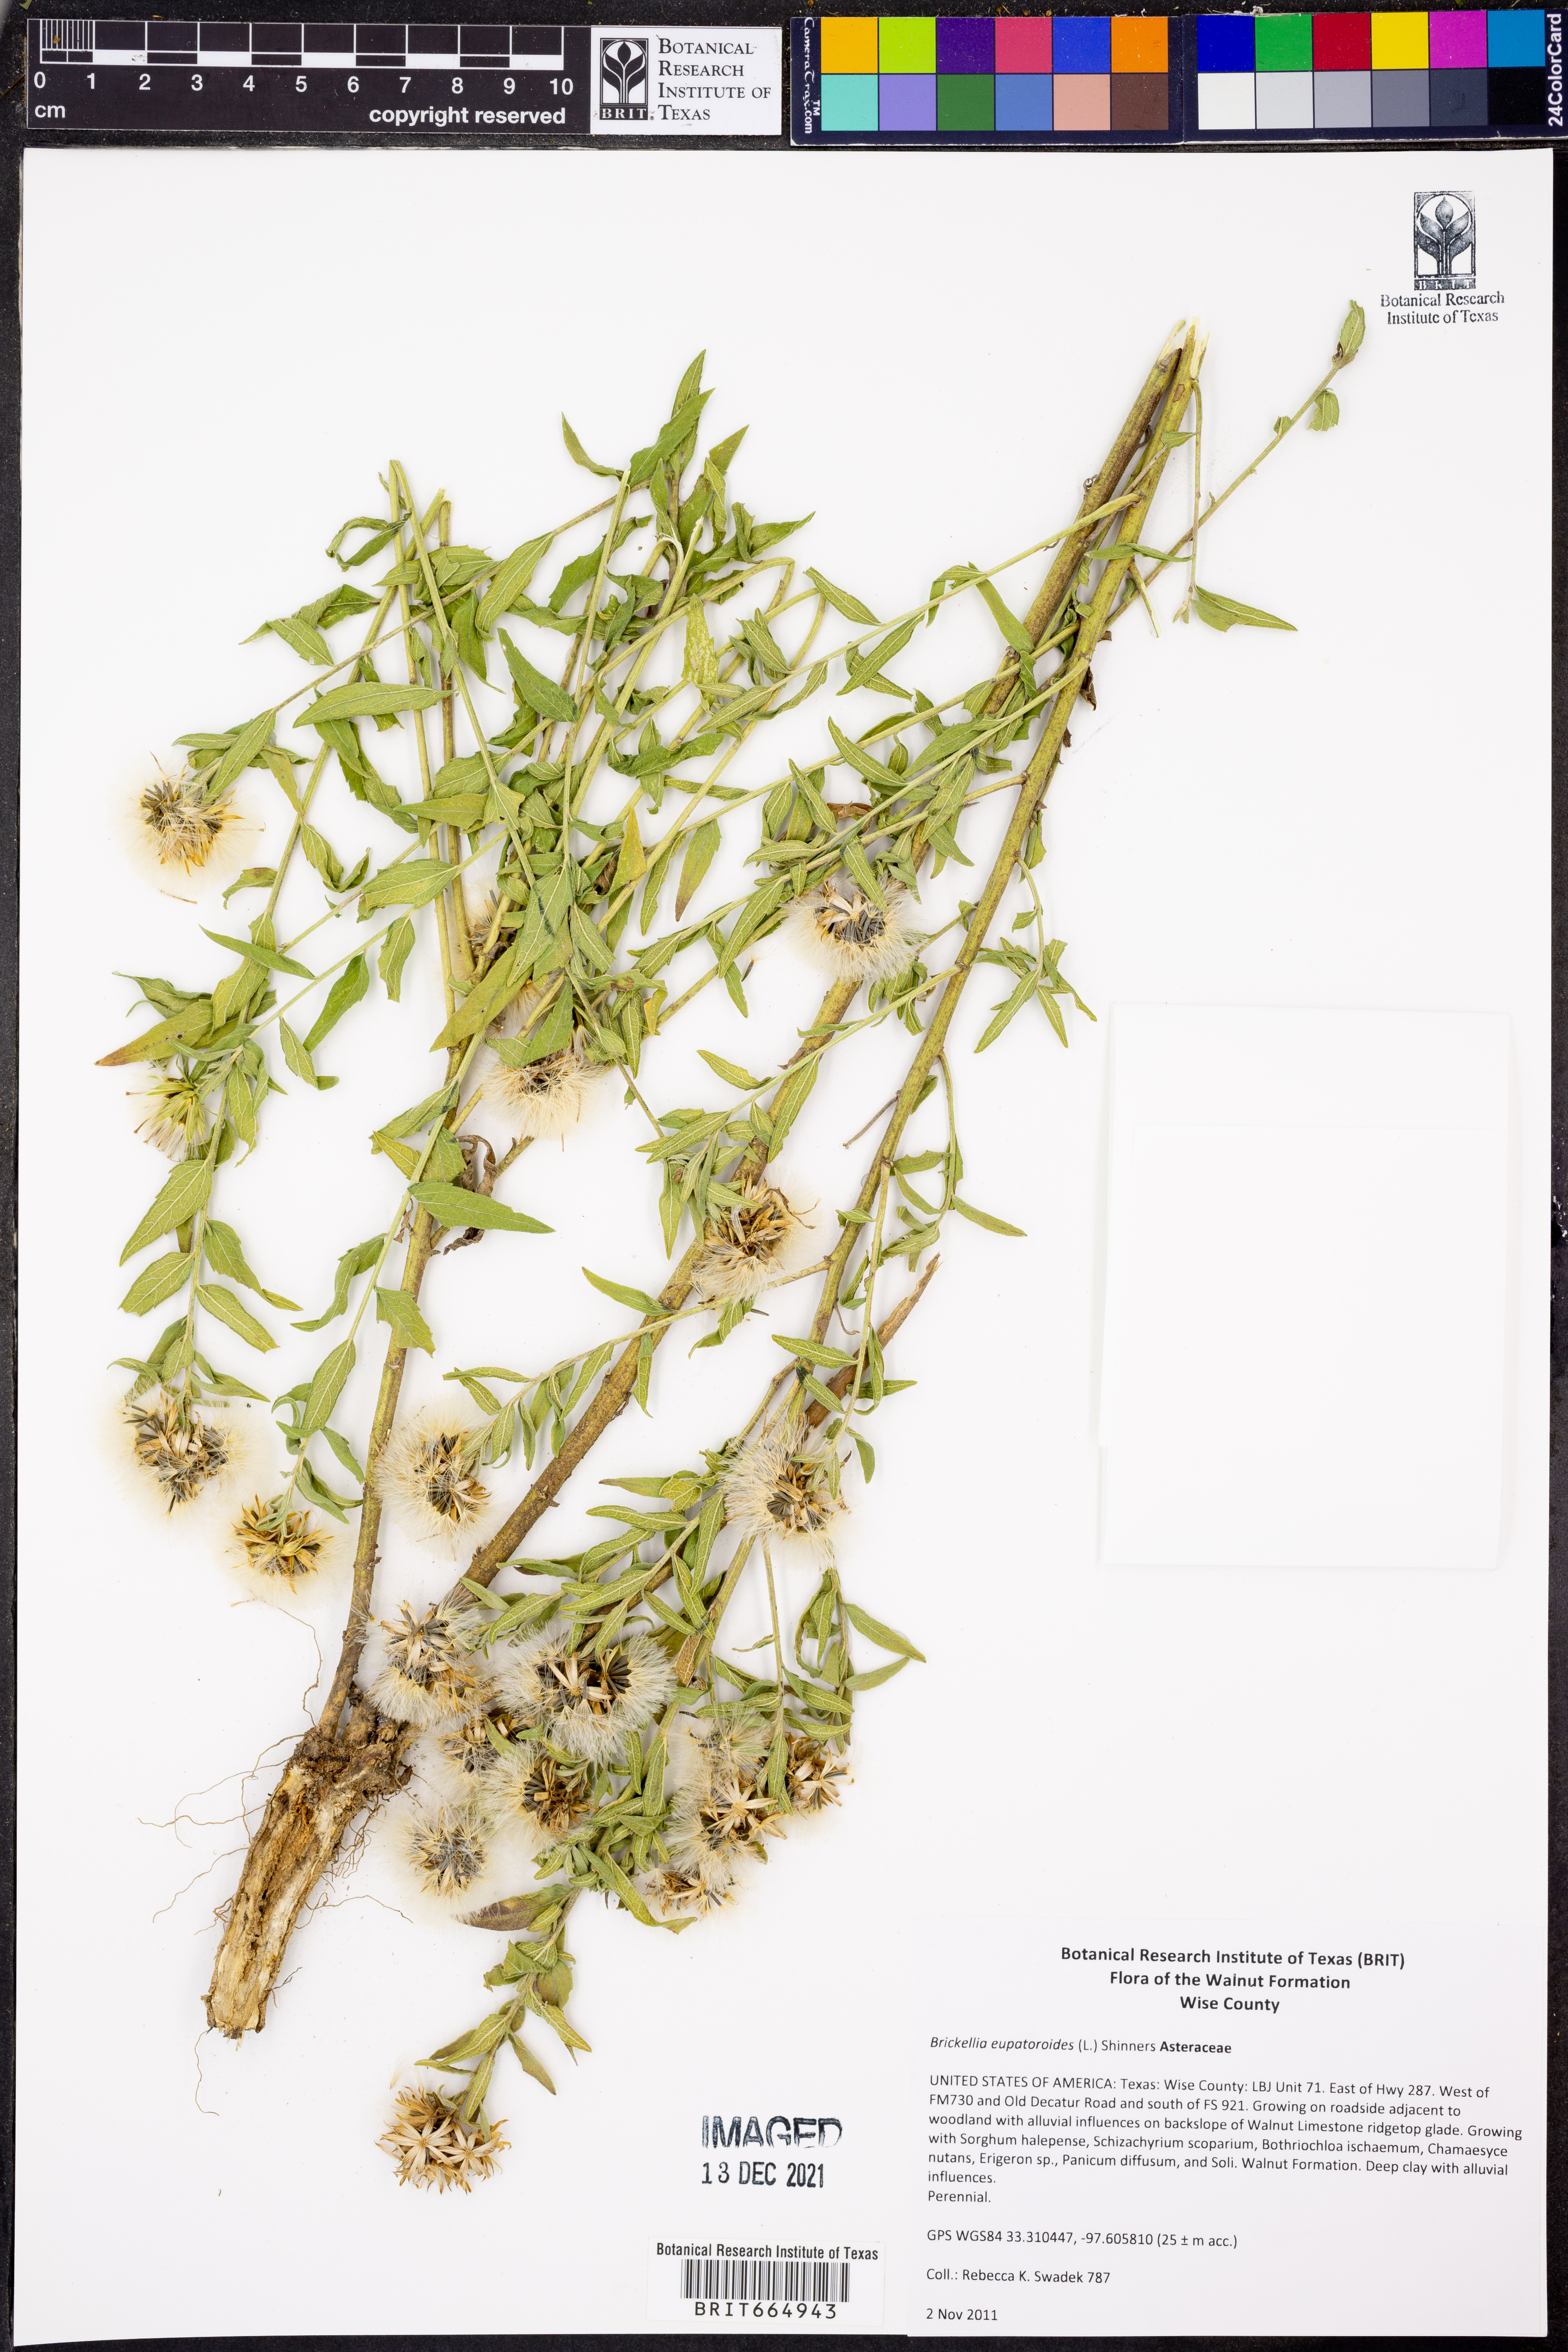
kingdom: Plantae
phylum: Tracheophyta
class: Magnoliopsida
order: Asterales
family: Asteraceae
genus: Brickellia
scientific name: Brickellia eupatorioides
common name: False boneset
